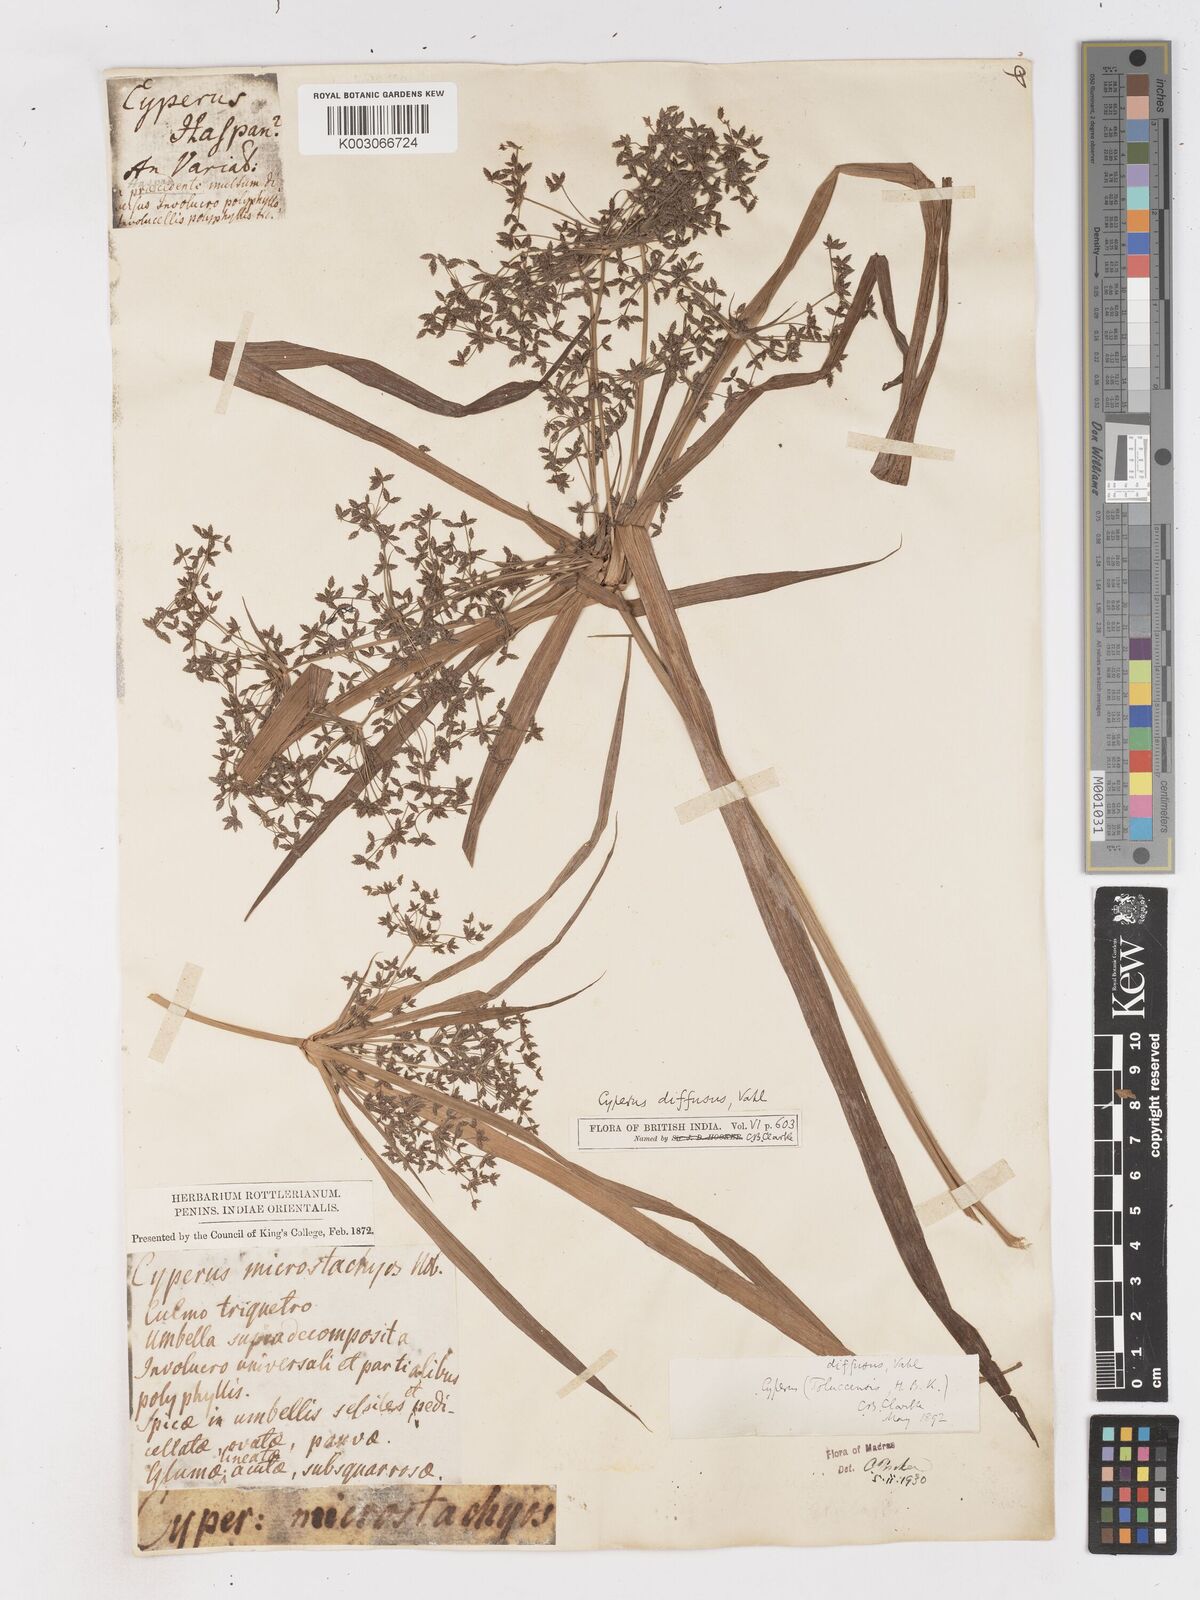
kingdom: Plantae
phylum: Tracheophyta
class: Liliopsida
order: Poales
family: Cyperaceae
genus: Cyperus
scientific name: Cyperus diffusus
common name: Dwarf umbrella grass
